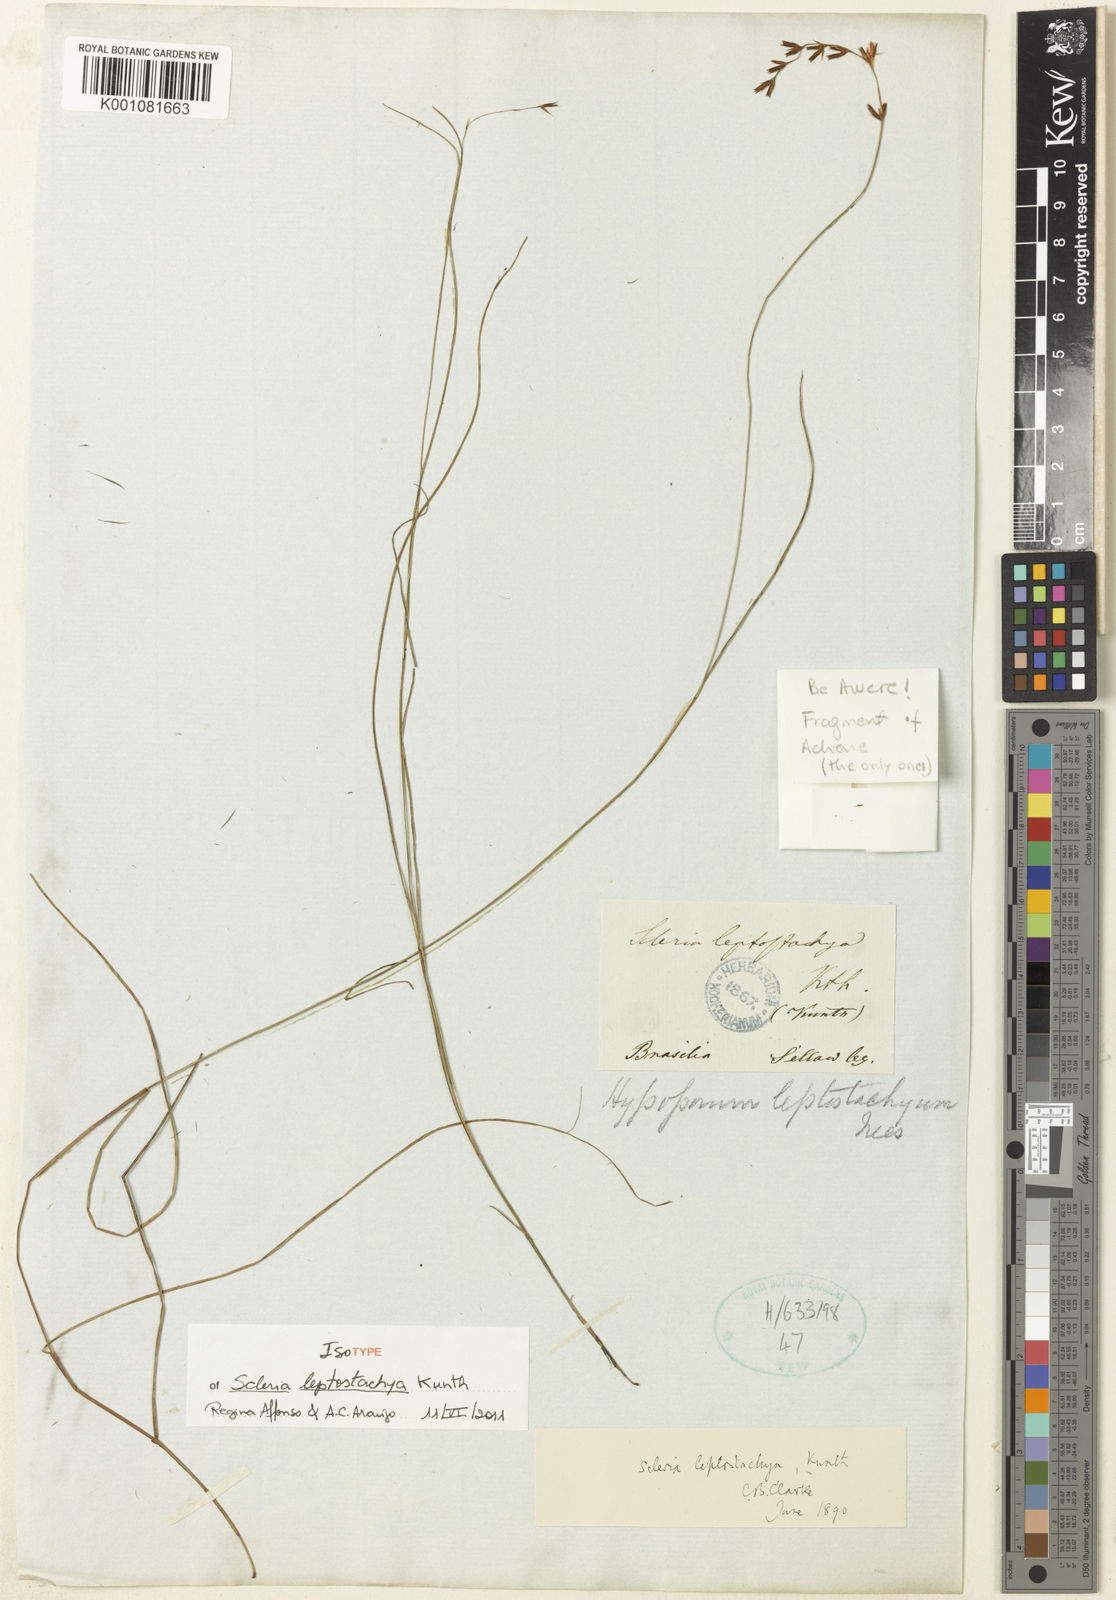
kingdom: Plantae
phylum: Tracheophyta
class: Liliopsida
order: Poales
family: Cyperaceae
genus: Scleria
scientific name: Scleria leptostachya
